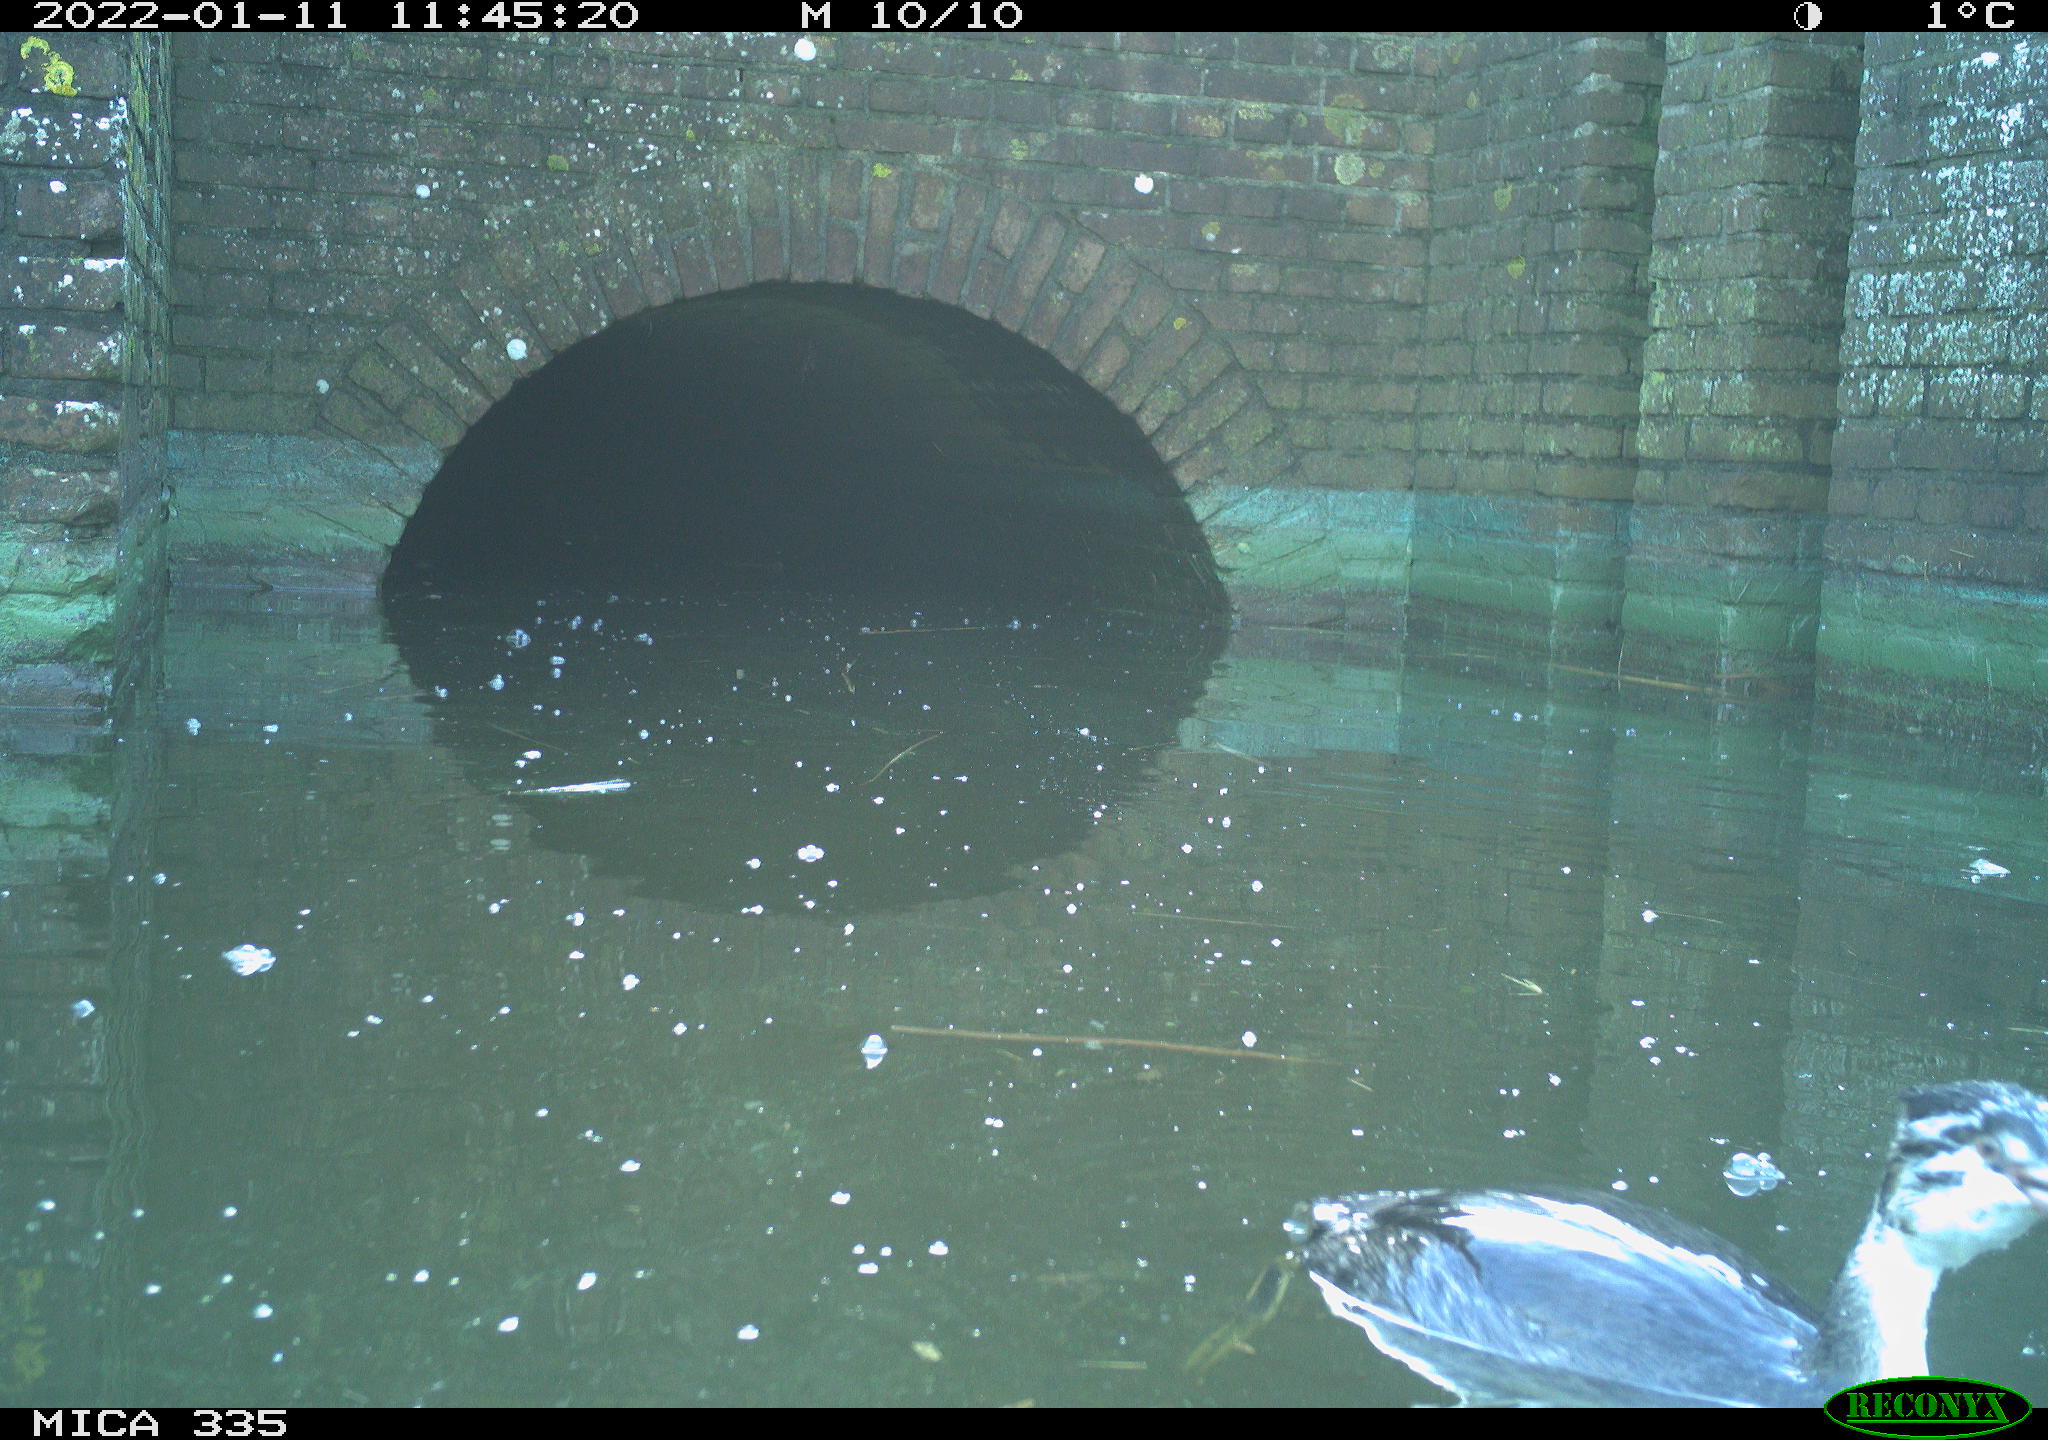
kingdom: Animalia
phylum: Chordata
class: Aves
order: Podicipediformes
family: Podicipedidae
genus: Podiceps
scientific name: Podiceps cristatus
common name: Great crested grebe
